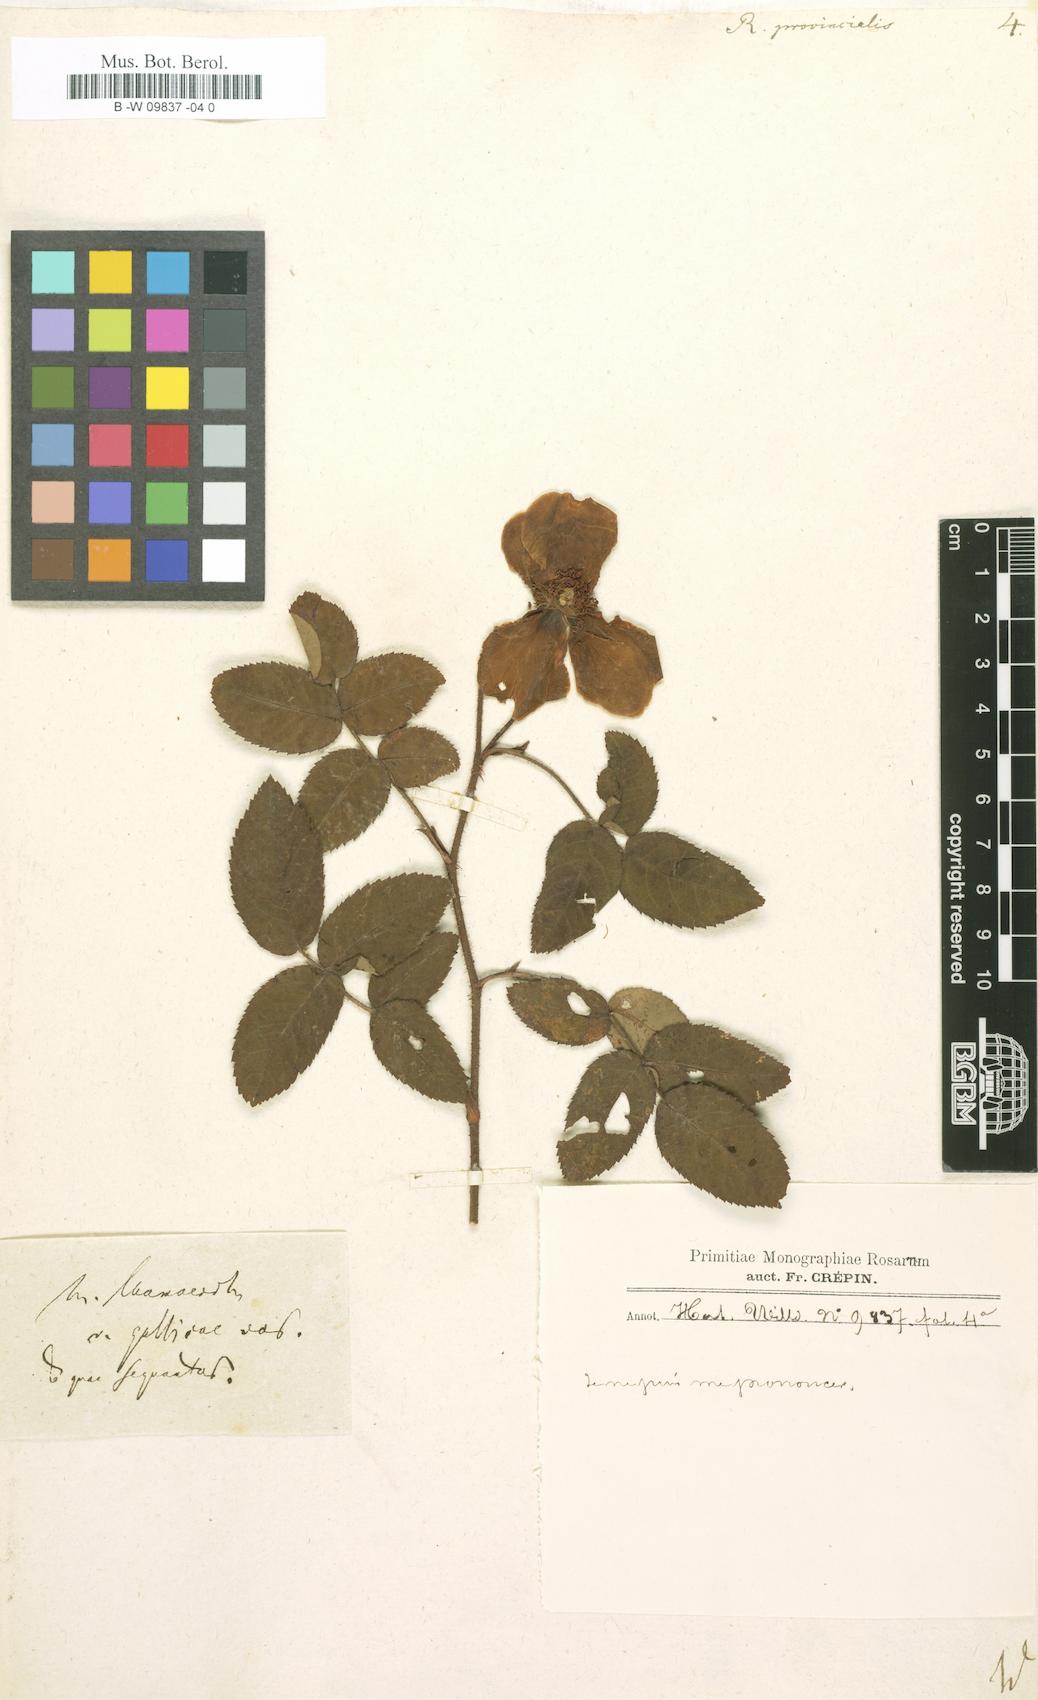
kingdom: Plantae
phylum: Tracheophyta
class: Magnoliopsida
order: Rosales
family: Rosaceae
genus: Rosa
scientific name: Rosa
